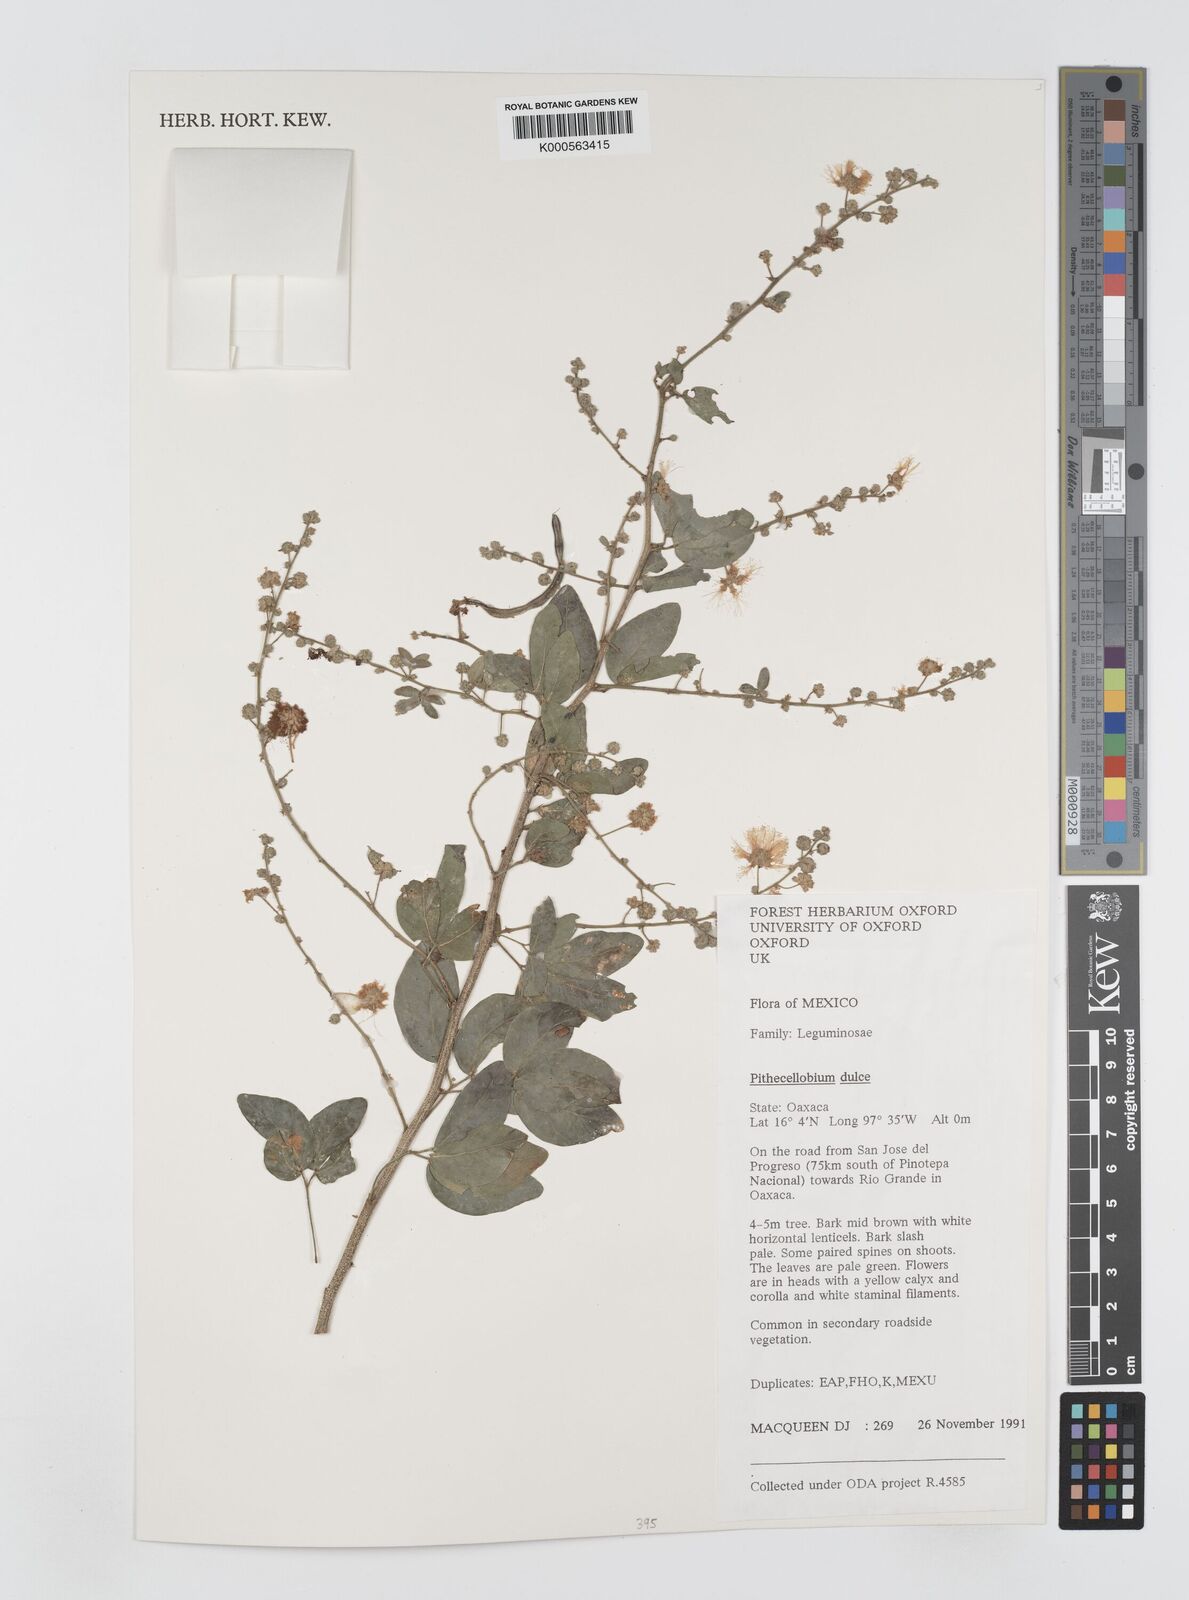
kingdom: Plantae
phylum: Tracheophyta
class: Magnoliopsida
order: Fabales
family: Fabaceae
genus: Pithecellobium
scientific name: Pithecellobium dulce
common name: Monkeypod
